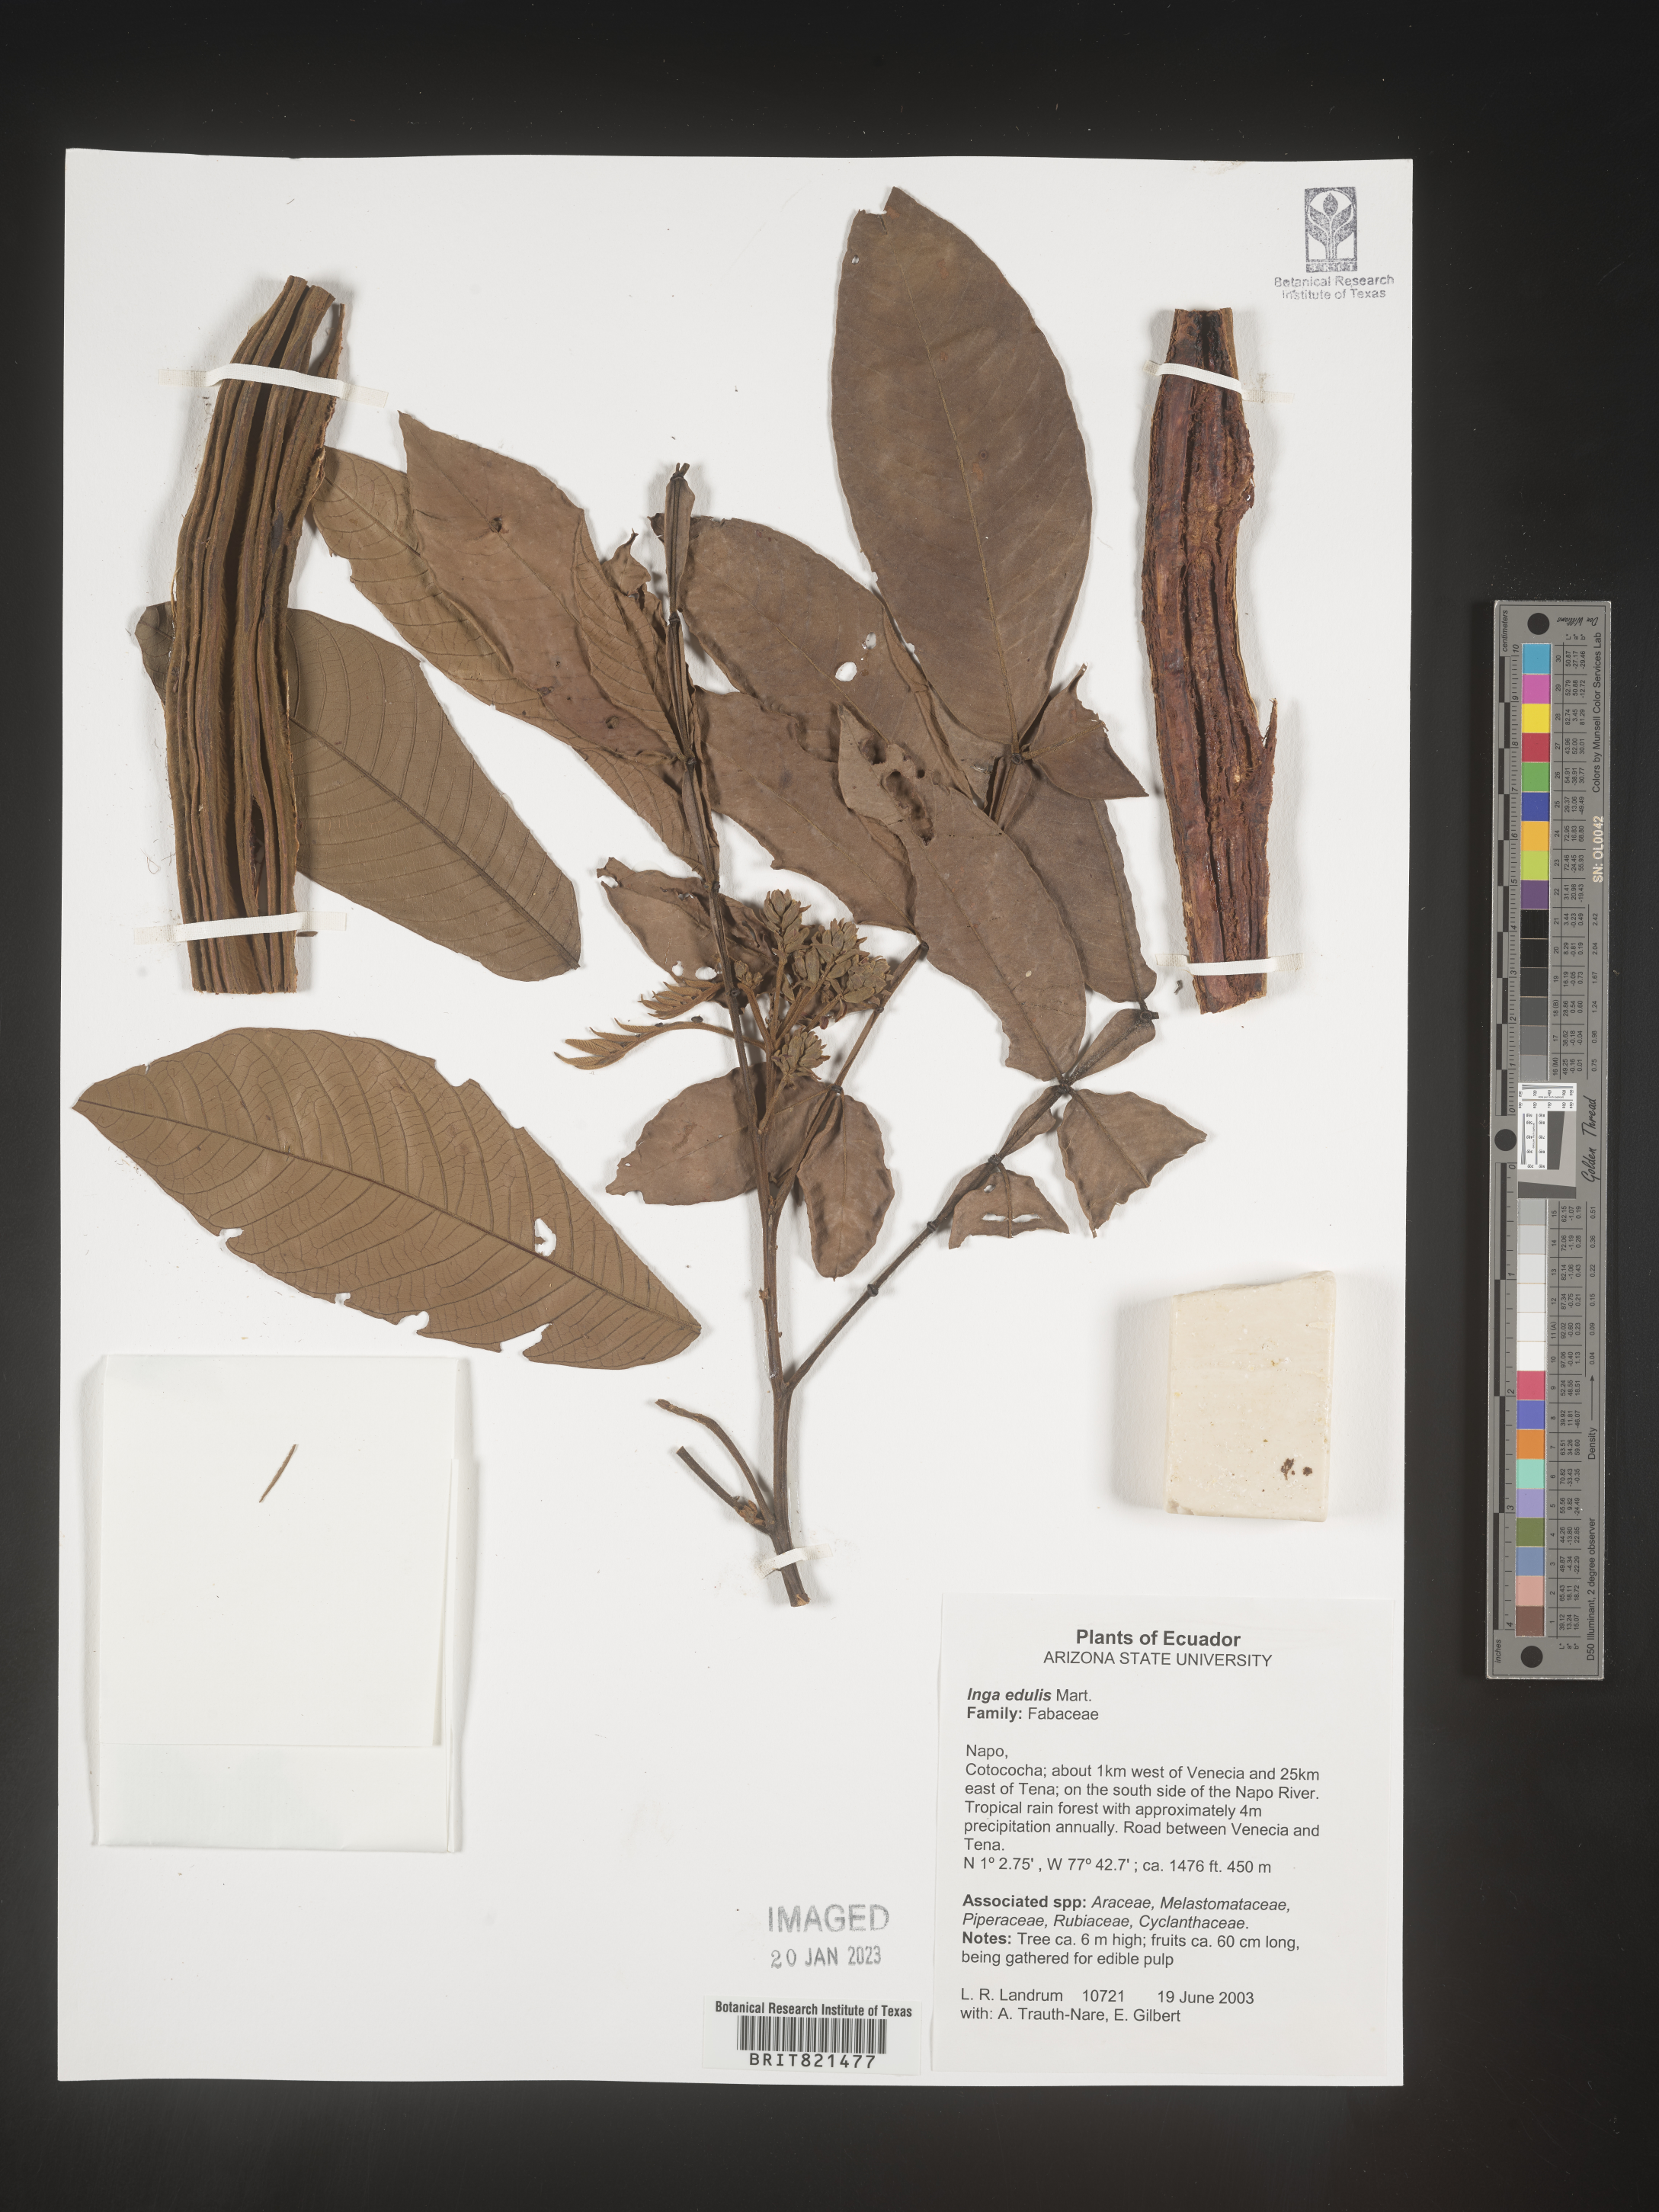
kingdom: Plantae
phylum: Tracheophyta
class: Magnoliopsida
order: Fabales
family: Fabaceae
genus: Inga
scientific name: Inga
